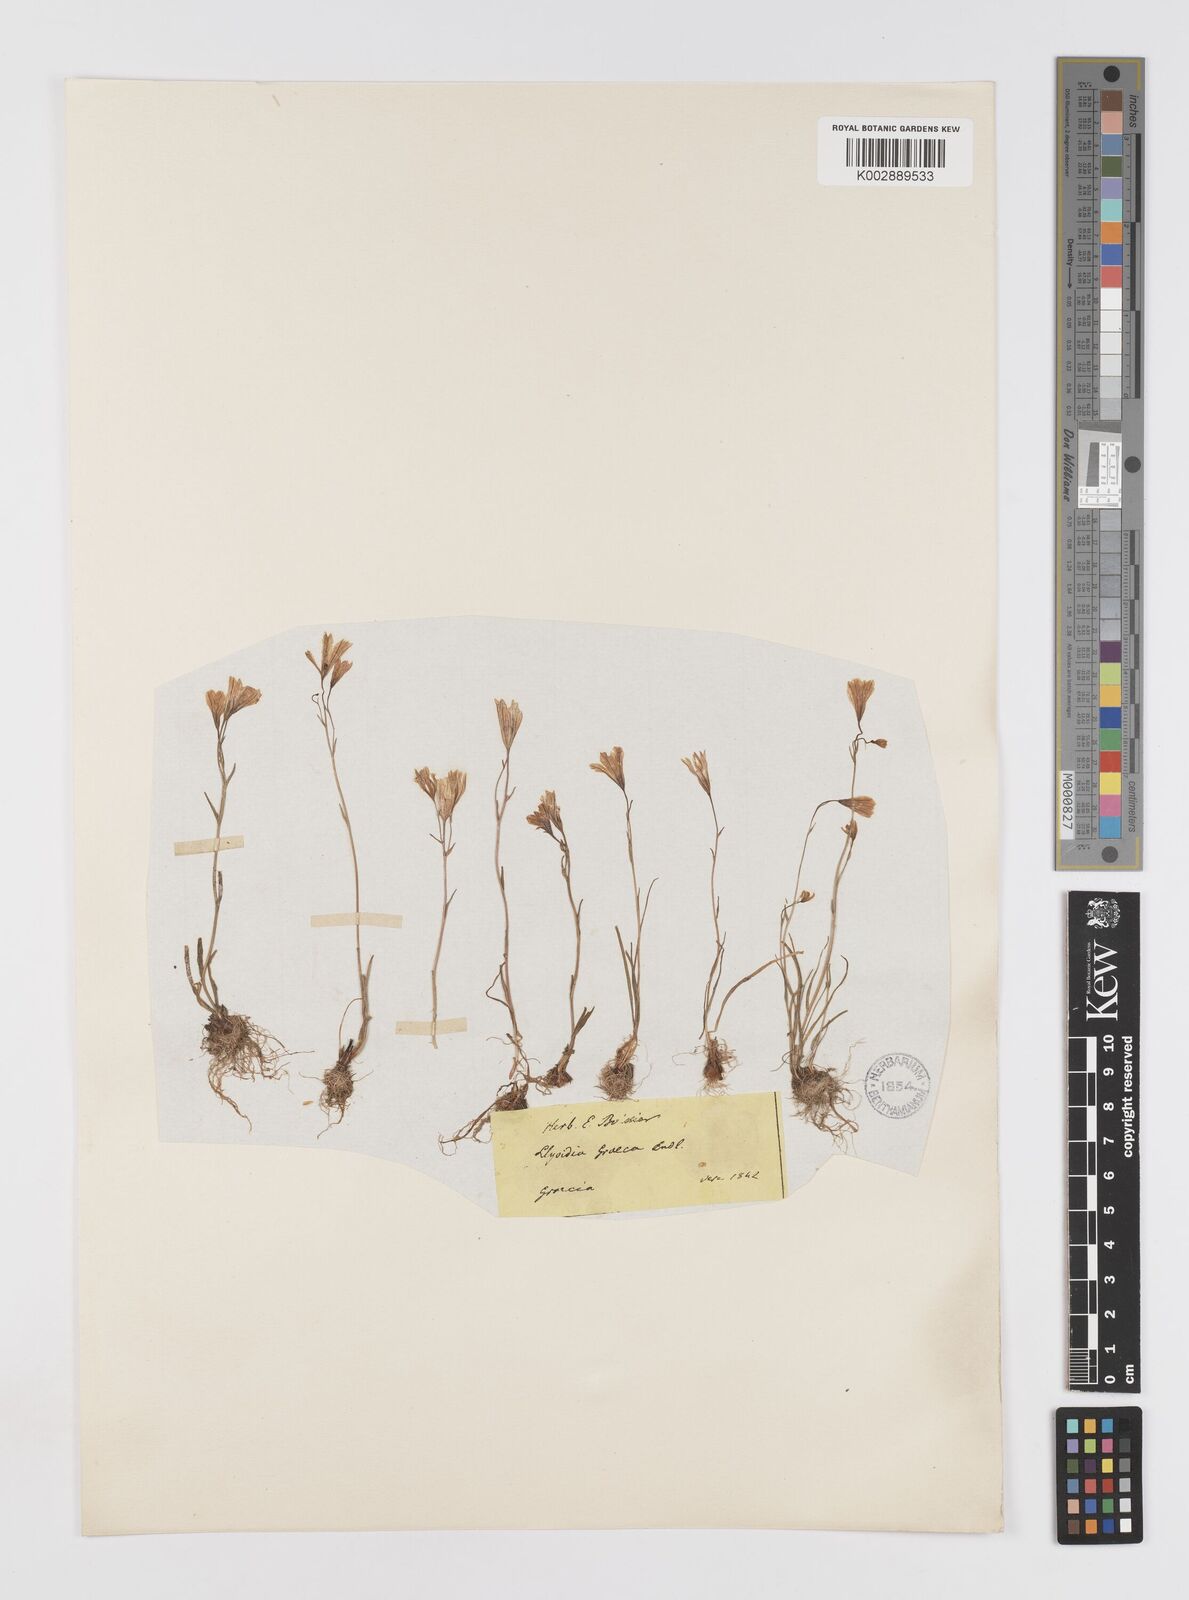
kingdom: Plantae
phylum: Tracheophyta
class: Liliopsida
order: Liliales
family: Liliaceae
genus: Gagea
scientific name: Gagea graeca
